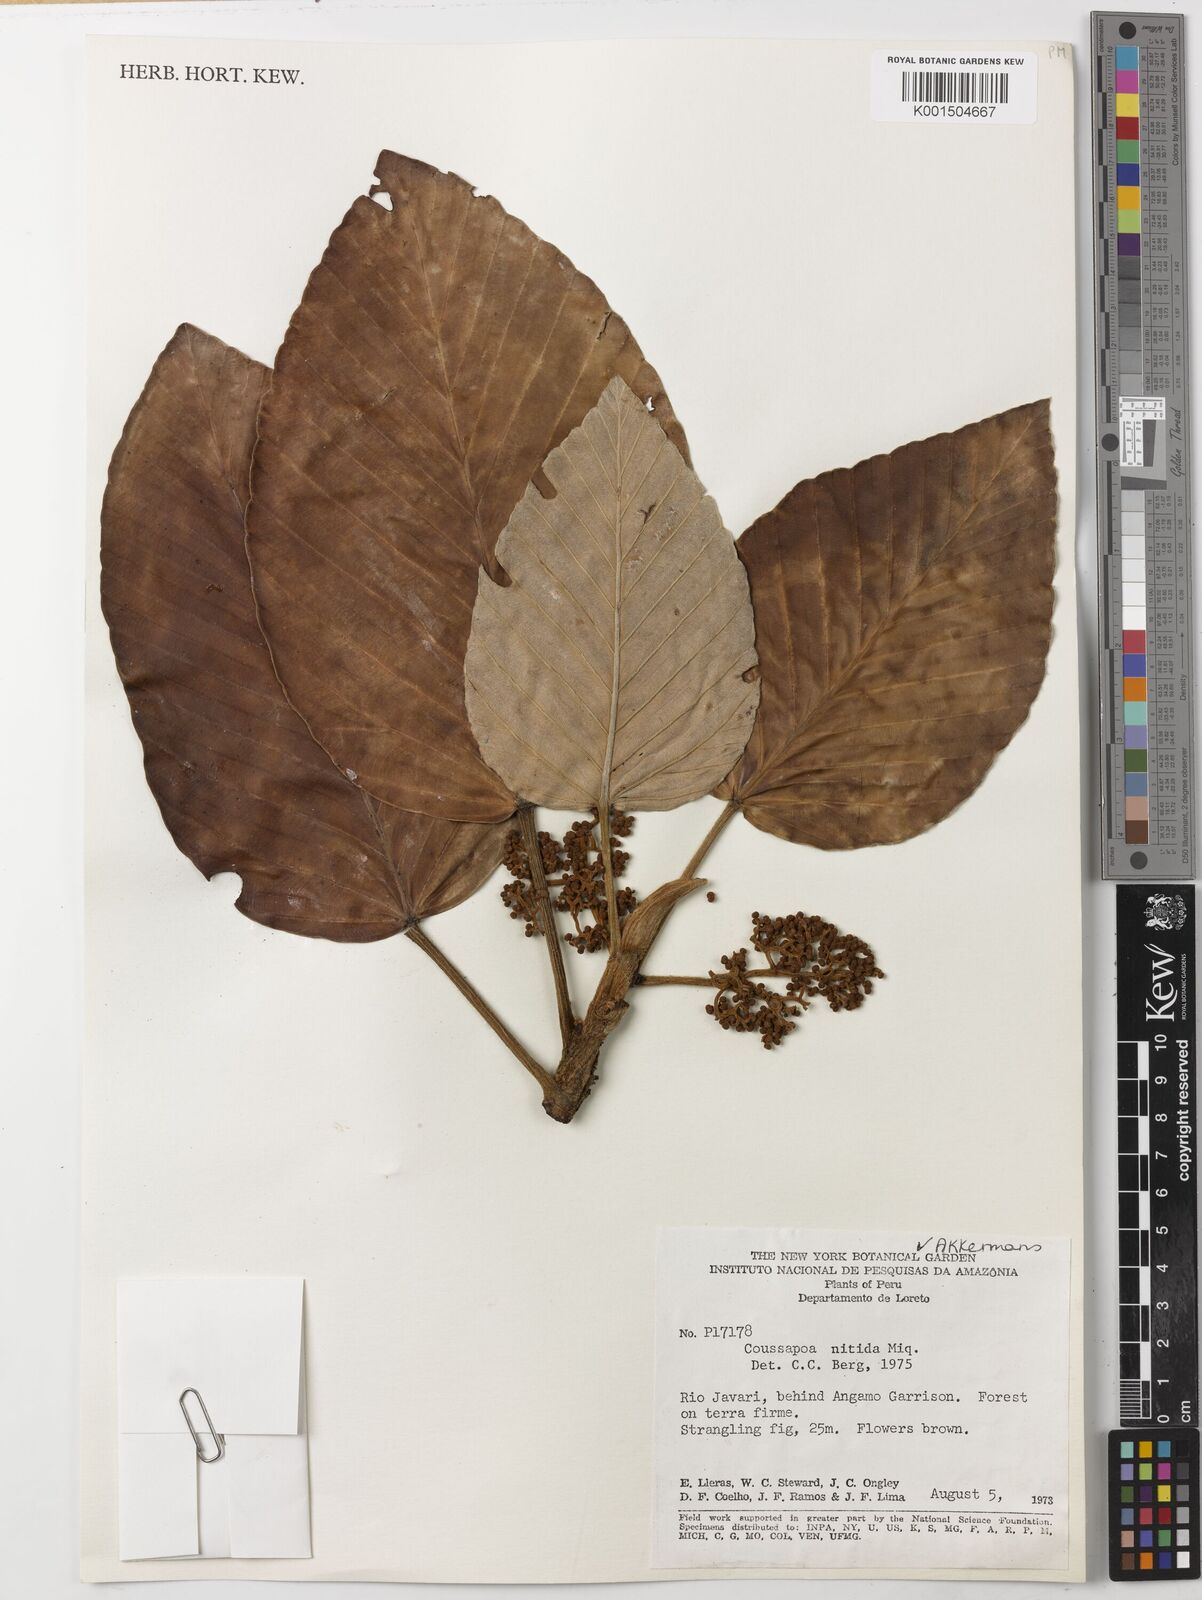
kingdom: Plantae
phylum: Tracheophyta
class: Magnoliopsida
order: Rosales
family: Urticaceae
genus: Coussapoa
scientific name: Coussapoa nitida
